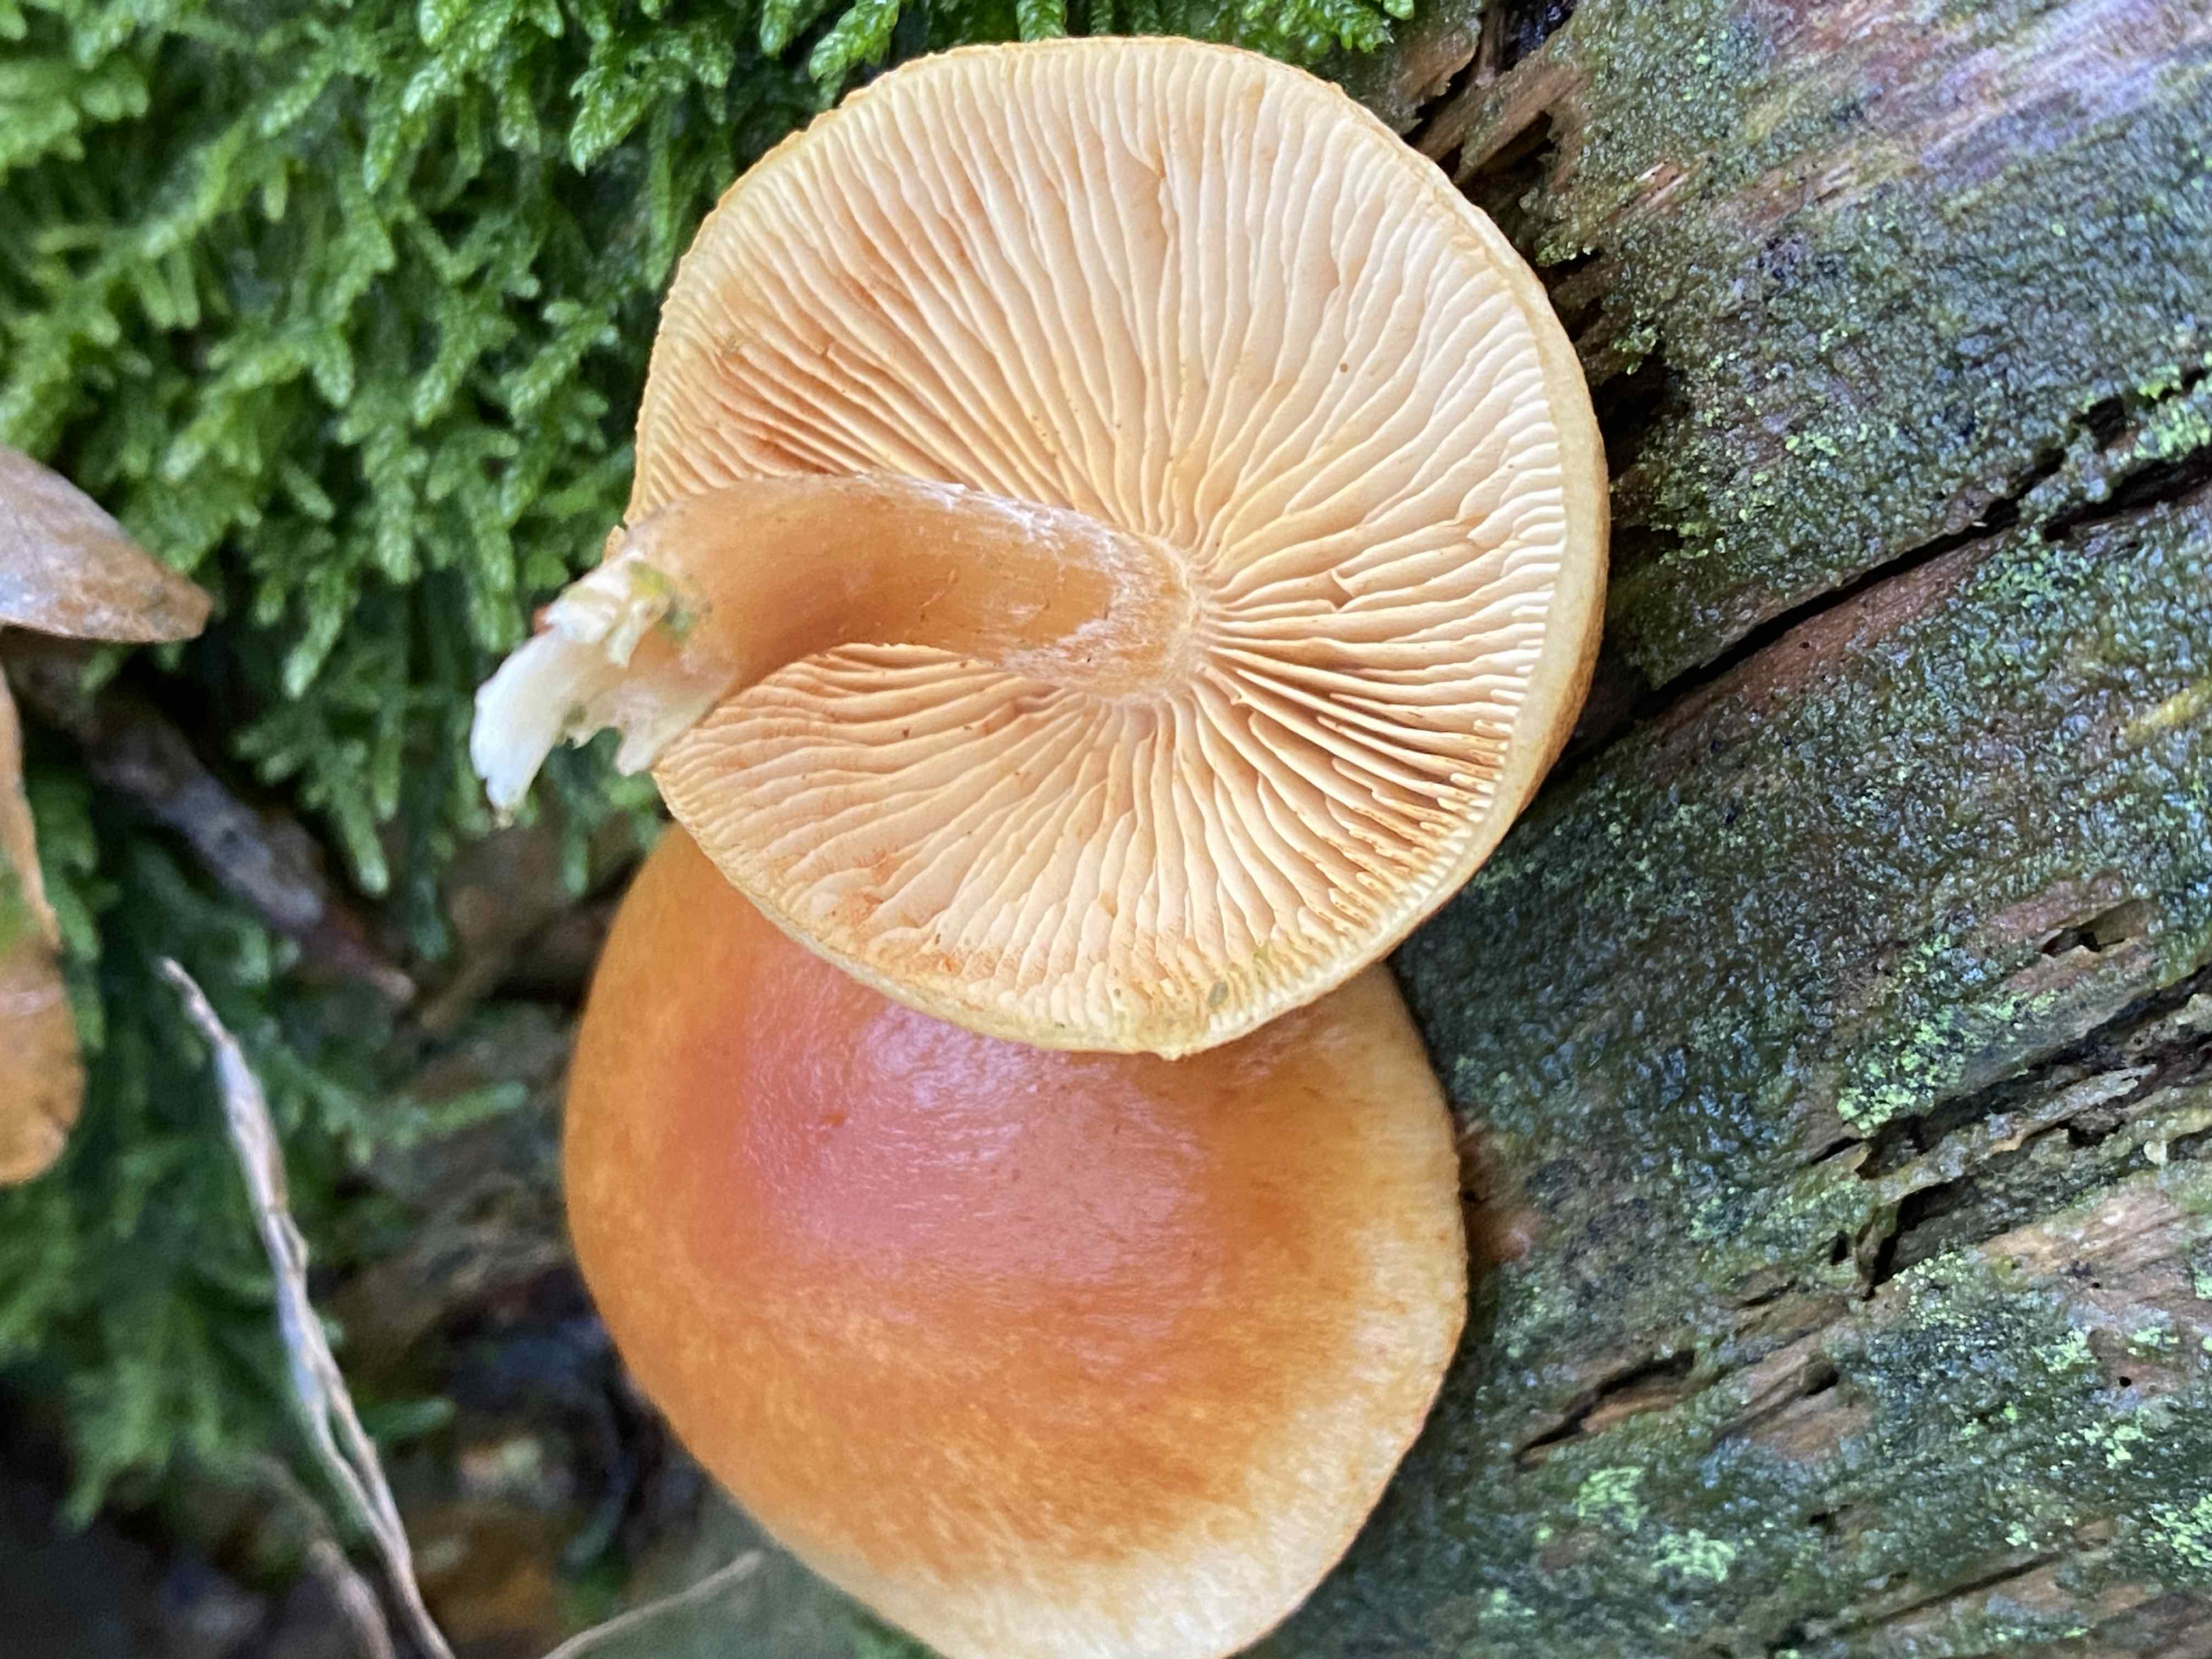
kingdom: Fungi
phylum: Basidiomycota
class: Agaricomycetes
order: Agaricales
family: Hymenogastraceae
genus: Gymnopilus
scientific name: Gymnopilus penetrans
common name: plettet flammehat
